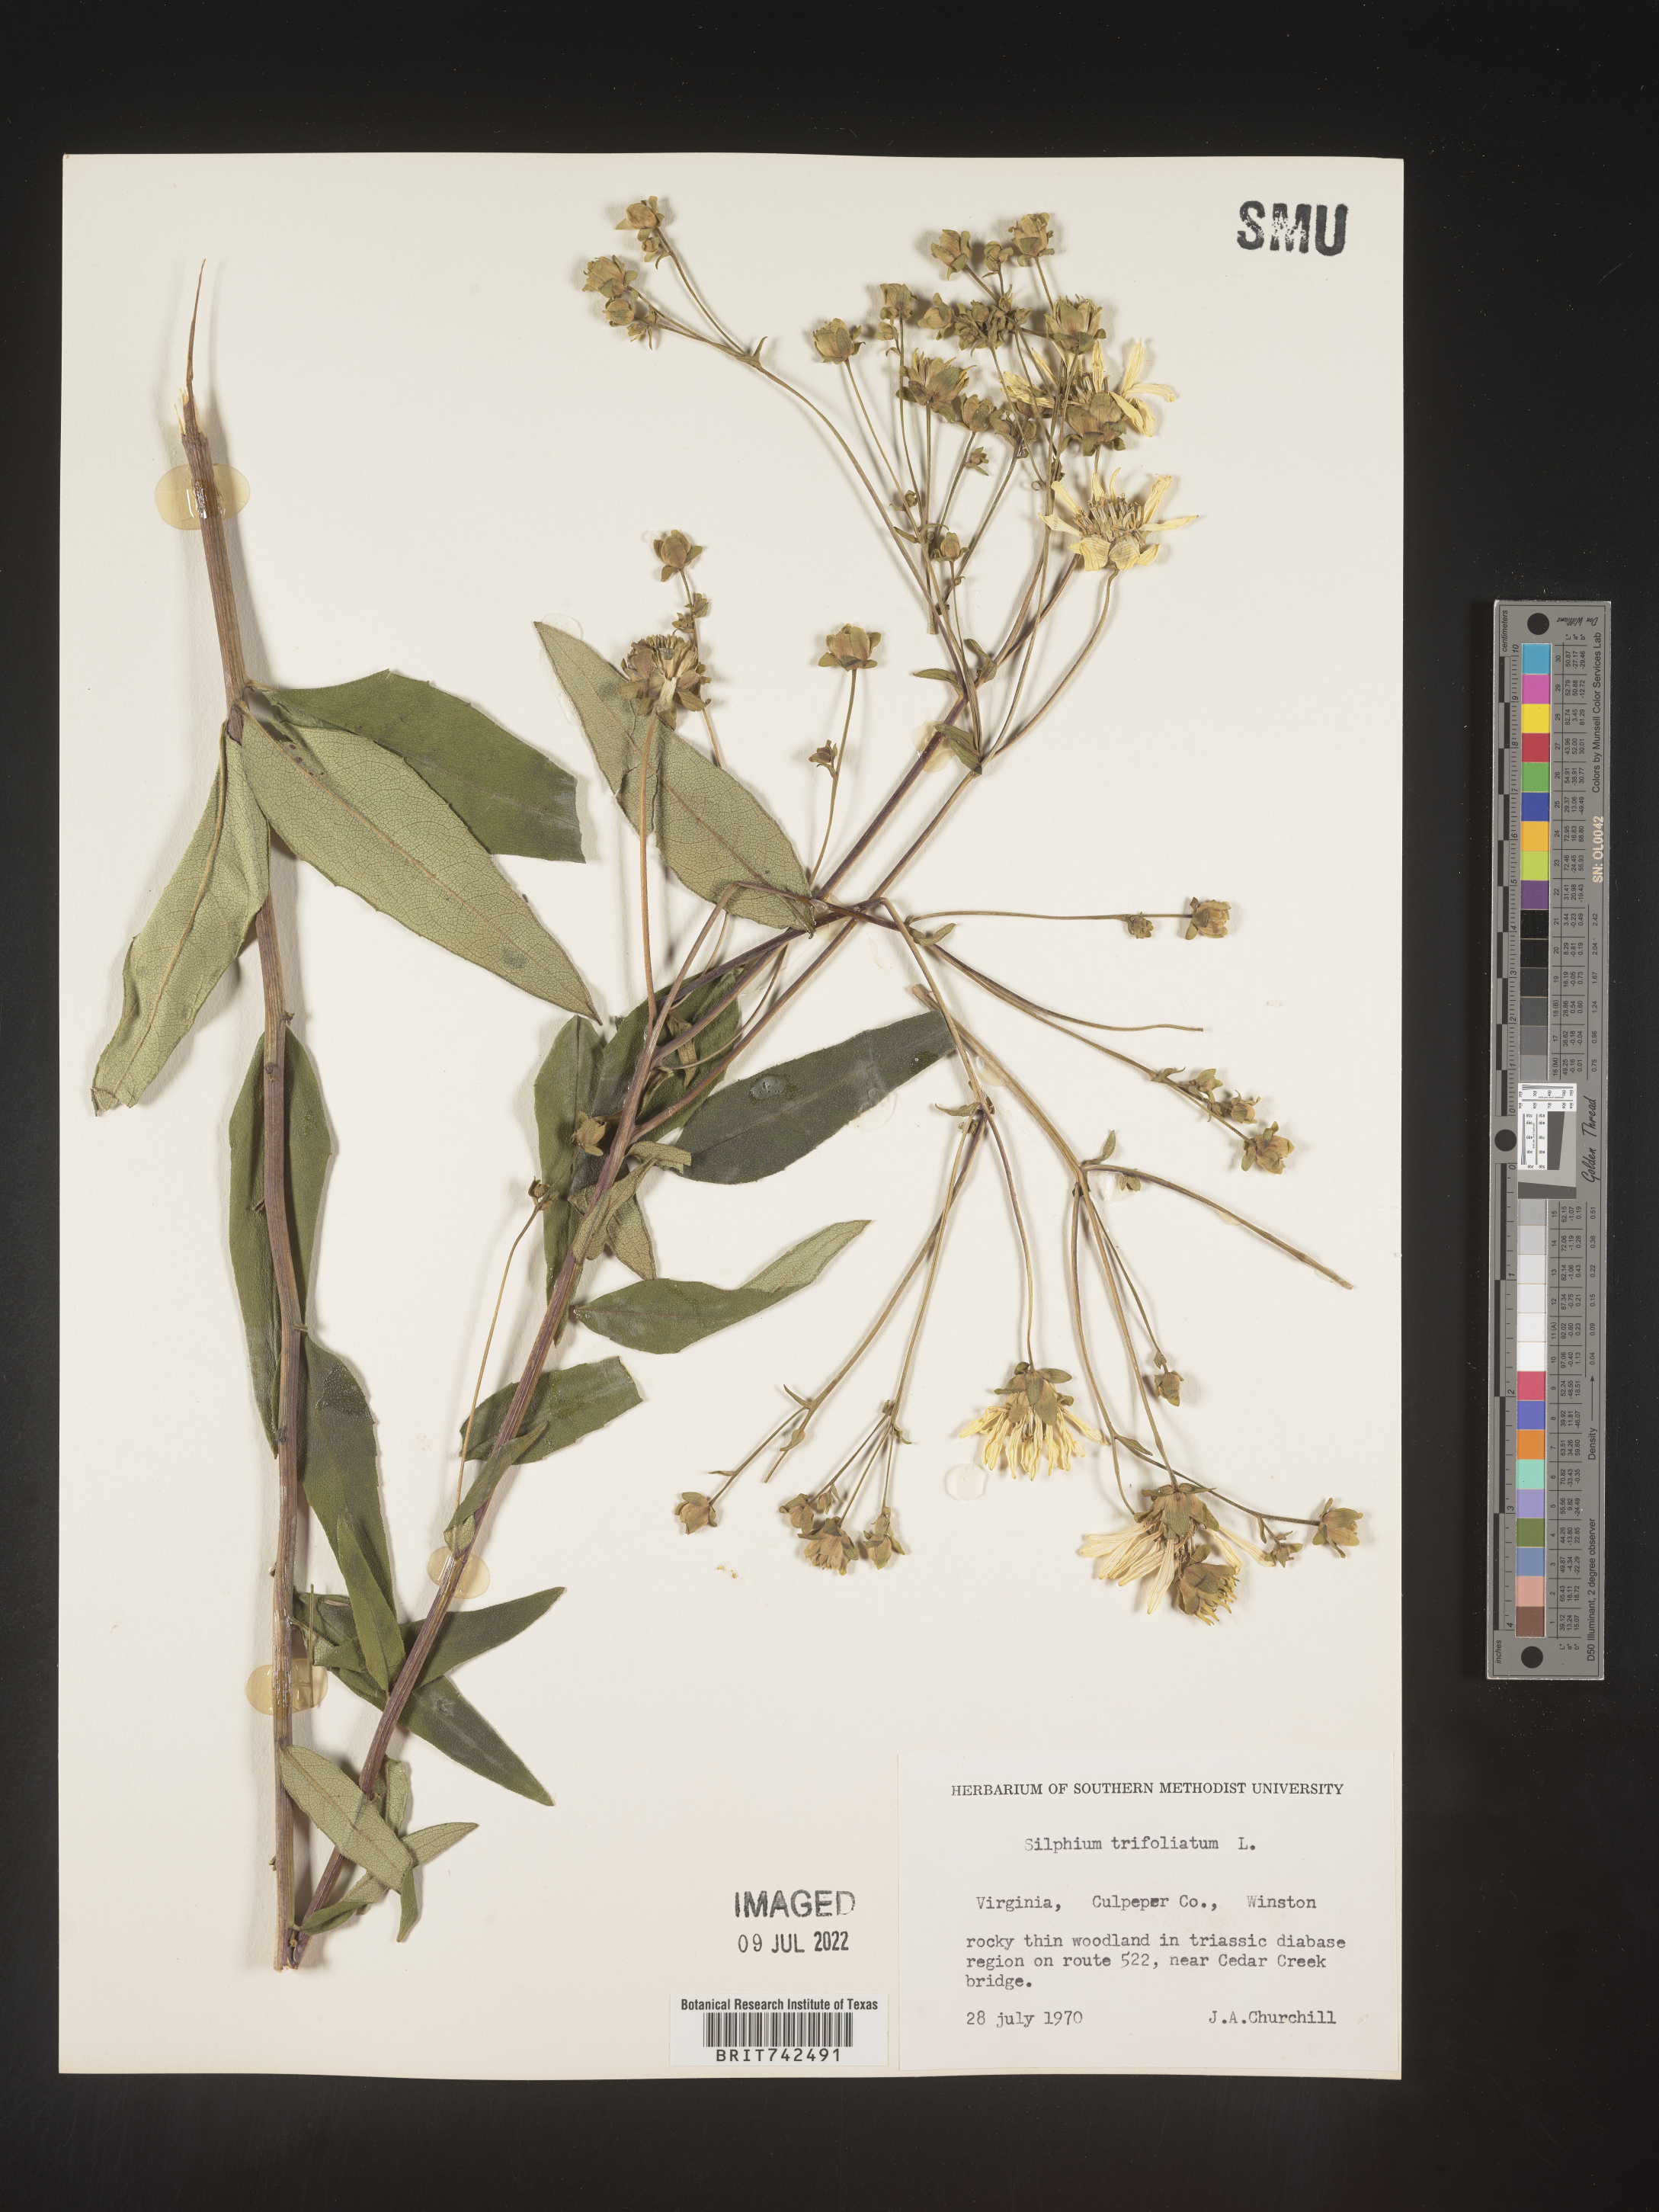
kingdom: Plantae
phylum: Tracheophyta
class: Magnoliopsida
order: Asterales
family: Asteraceae
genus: Silphium
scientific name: Silphium asteriscus
